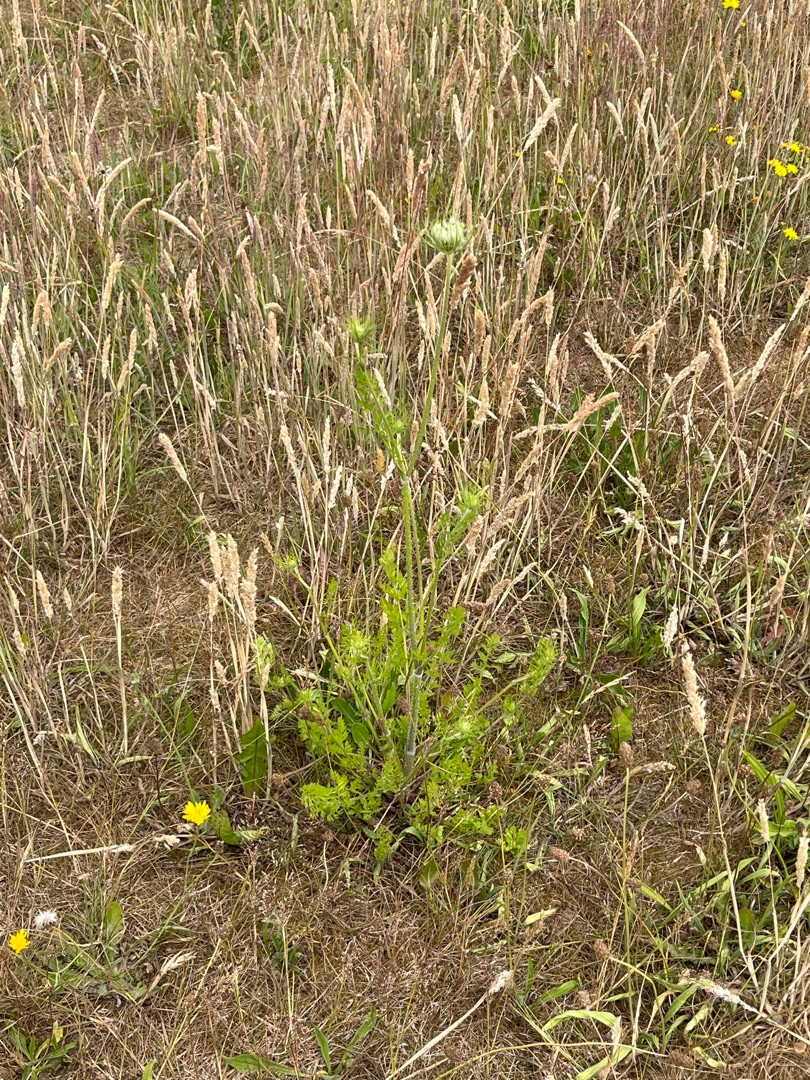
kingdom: Plantae
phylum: Tracheophyta
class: Magnoliopsida
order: Apiales
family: Apiaceae
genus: Daucus
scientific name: Daucus carota
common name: Vild gulerod
